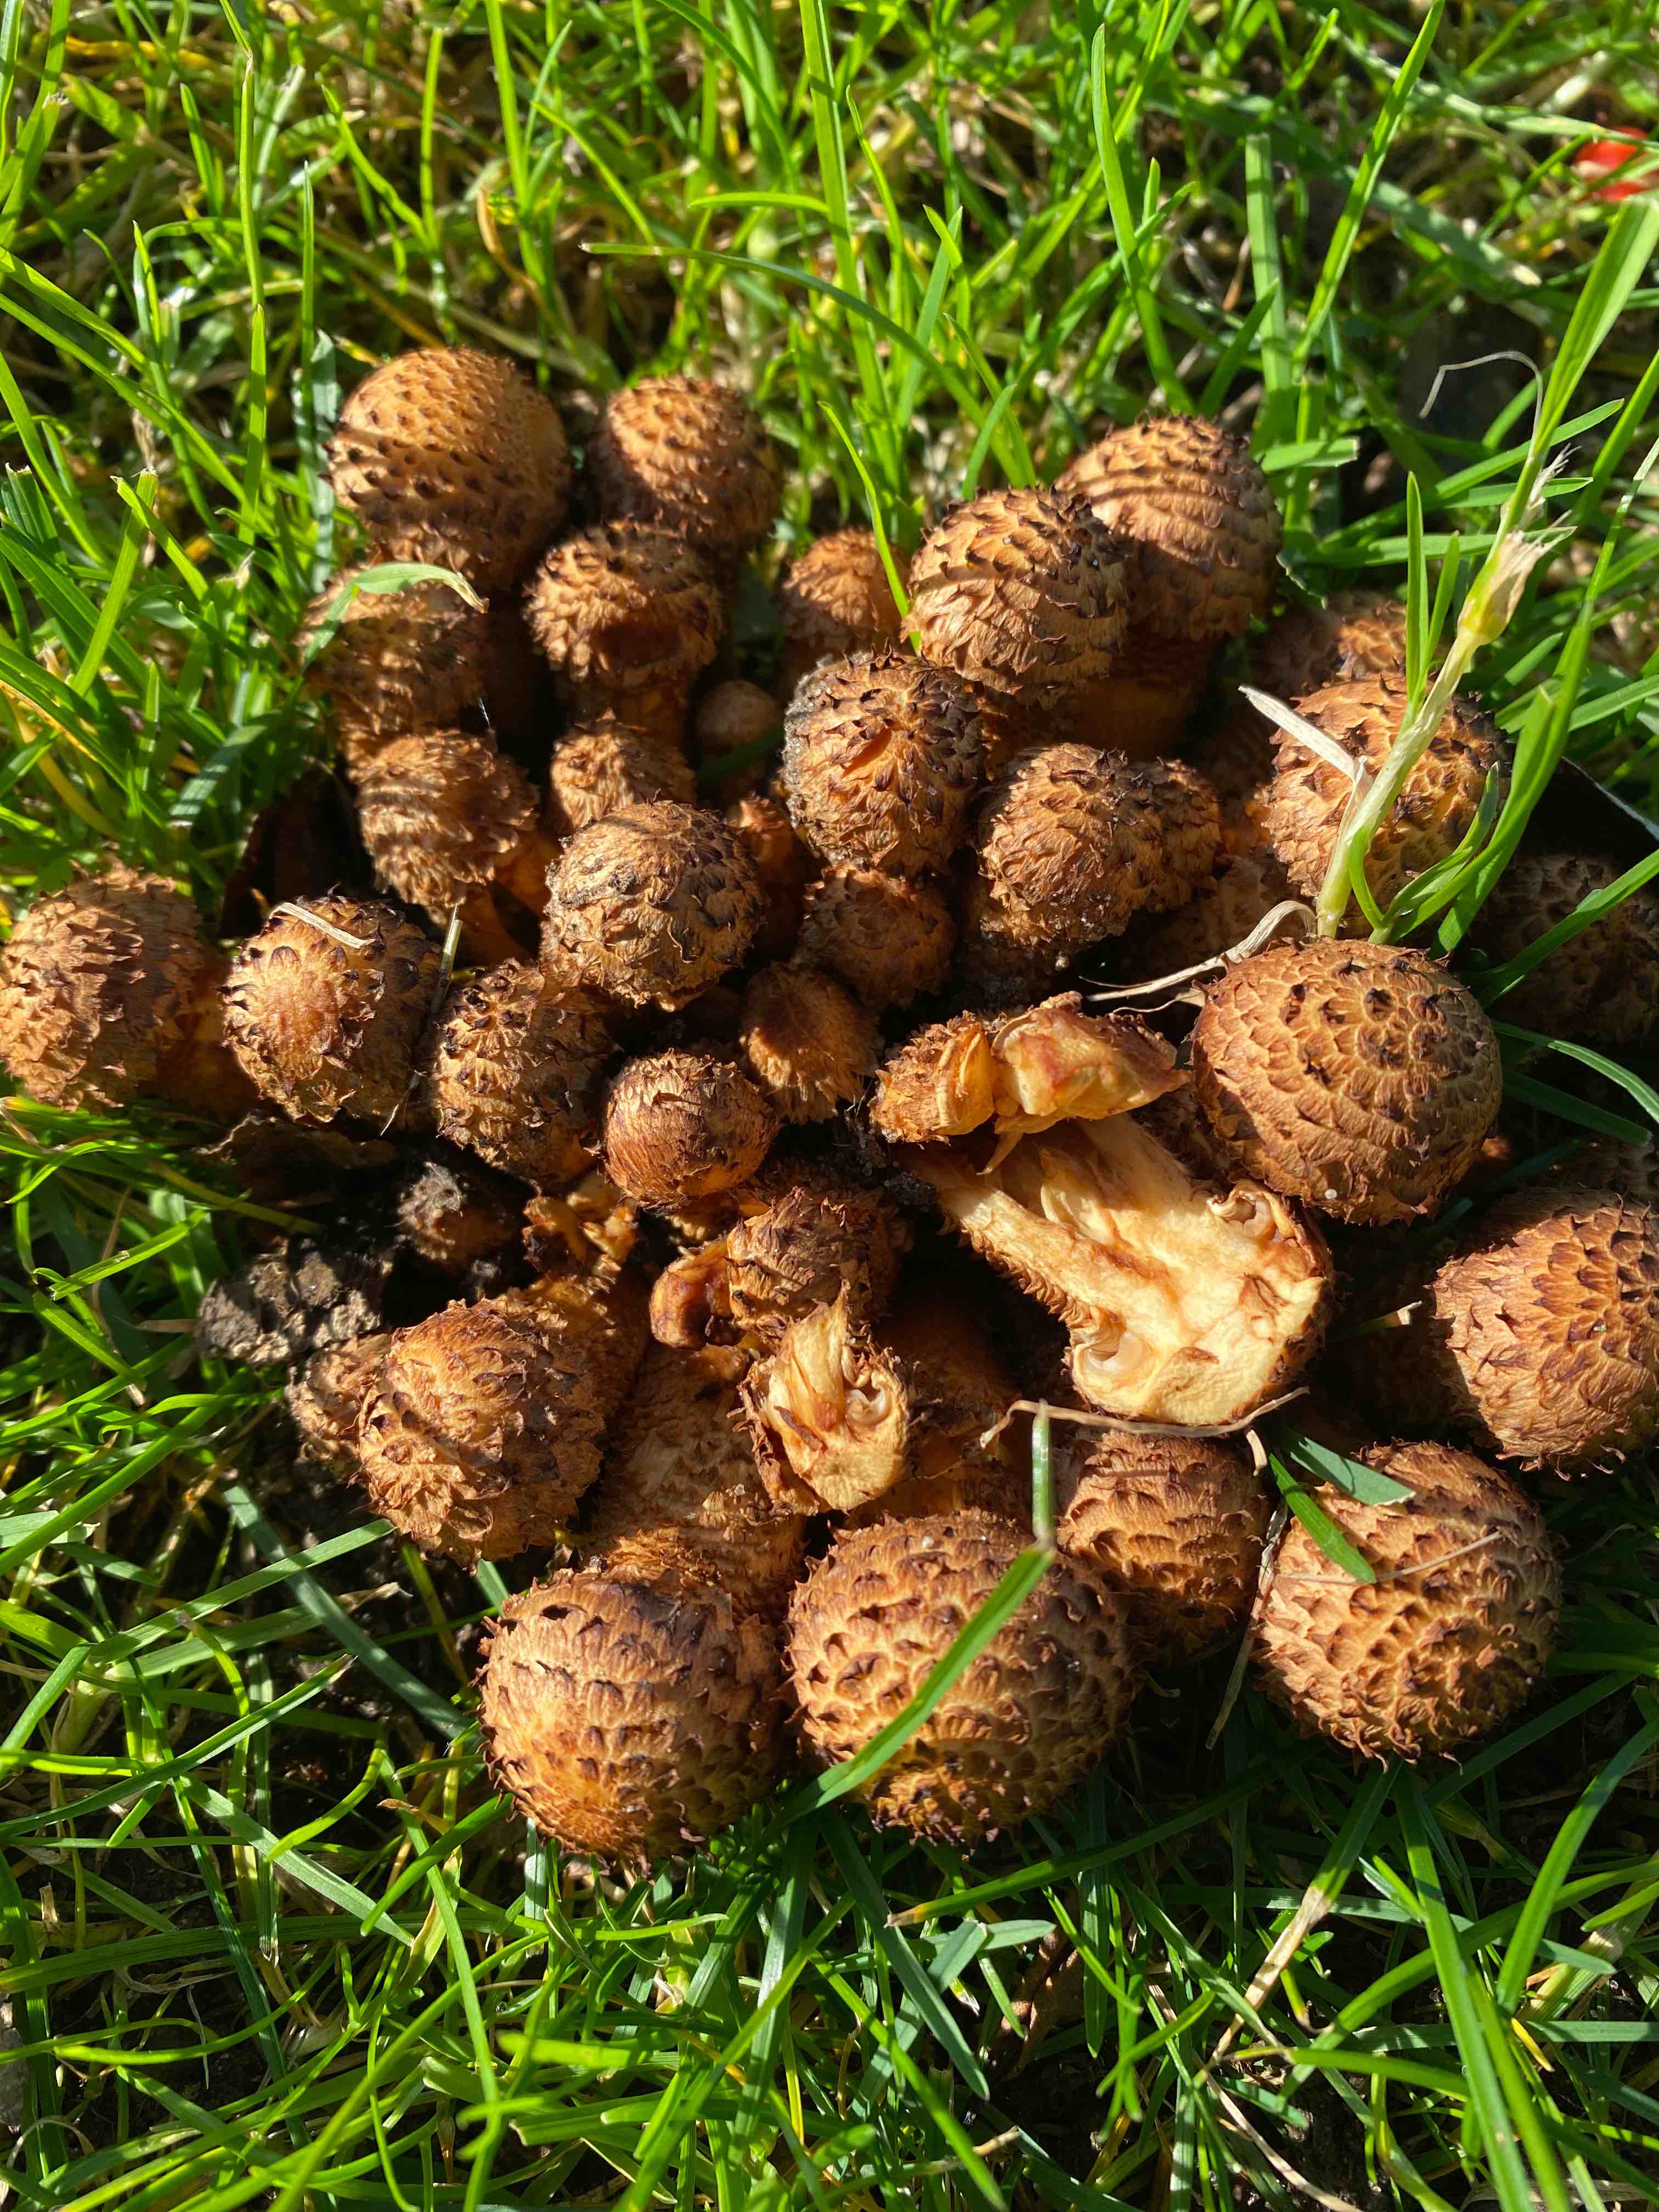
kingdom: Fungi
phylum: Basidiomycota
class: Agaricomycetes
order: Agaricales
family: Strophariaceae
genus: Pholiota
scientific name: Pholiota squarrosa
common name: krumskællet skælhat
